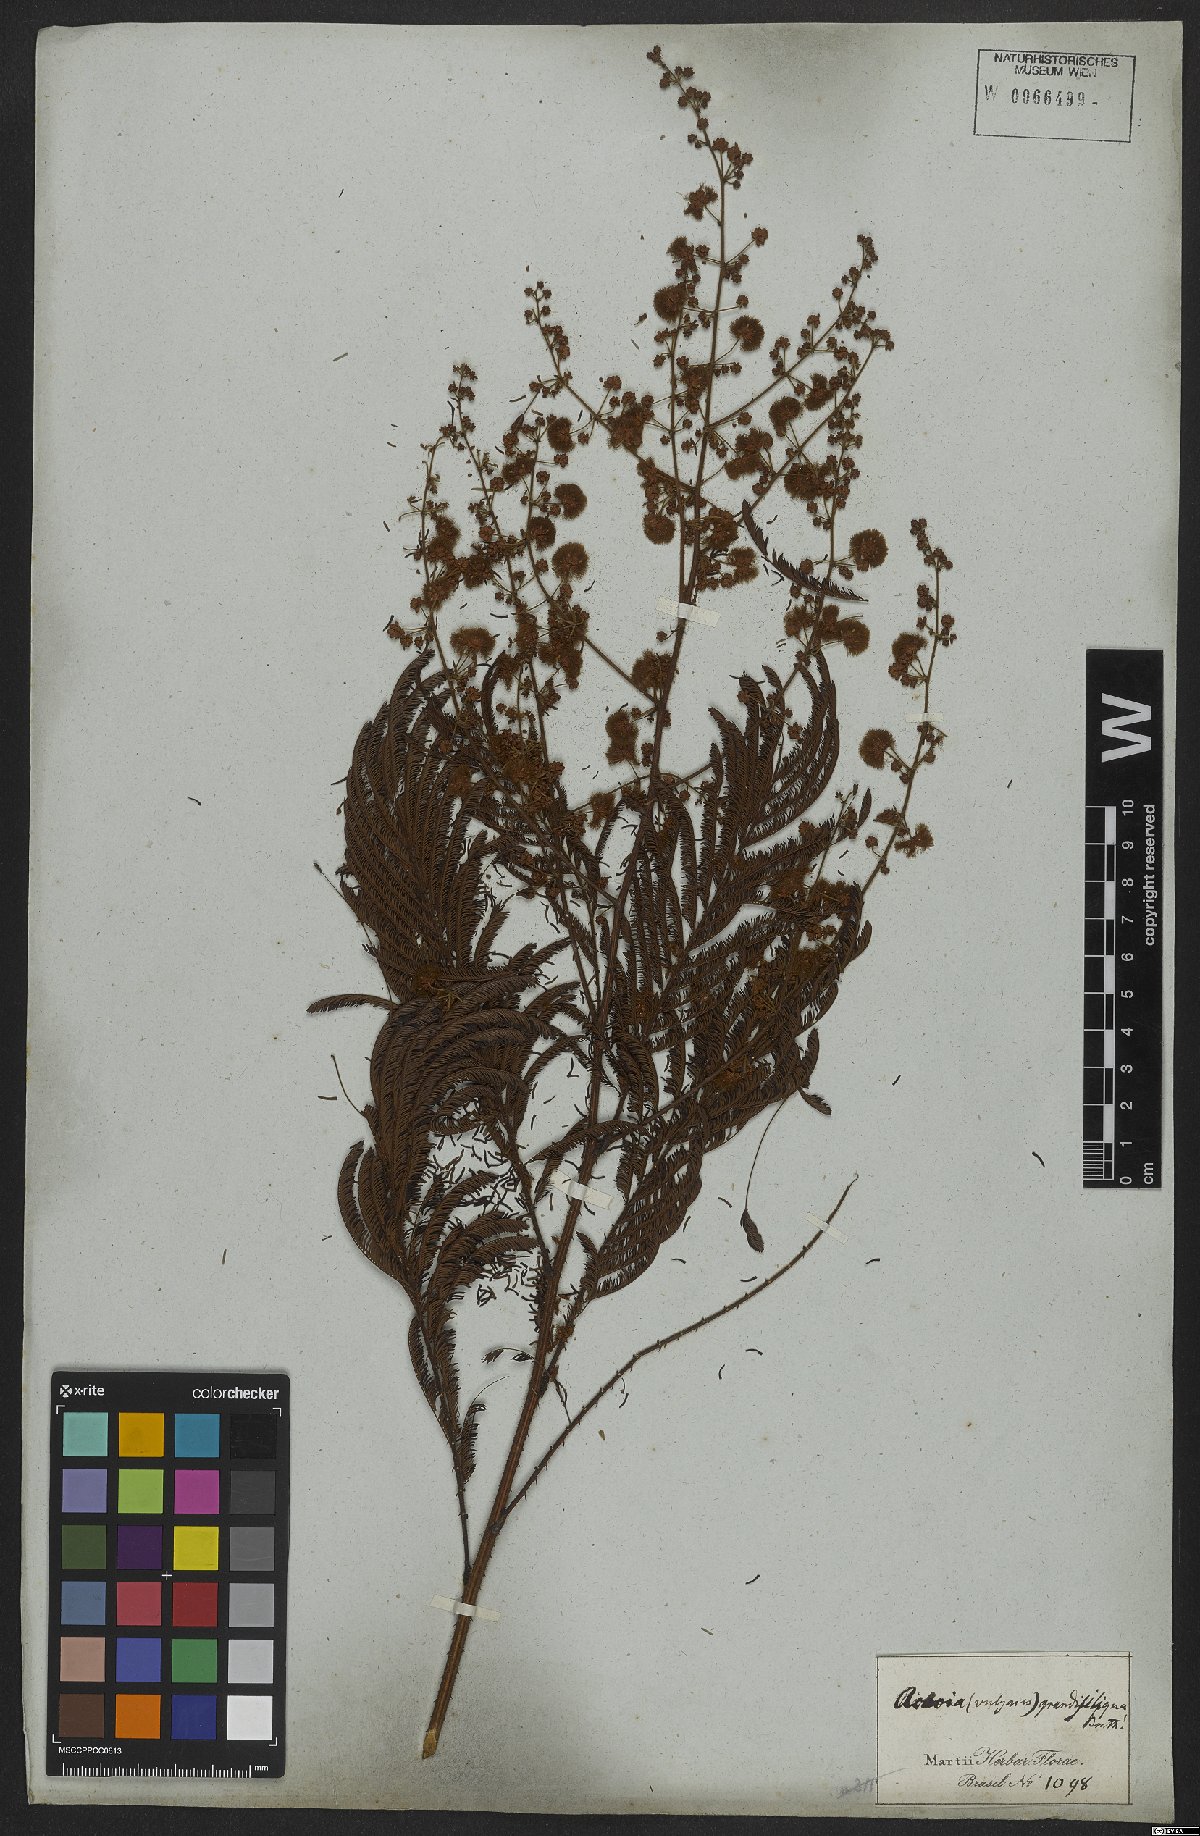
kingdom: Plantae
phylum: Tracheophyta
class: Magnoliopsida
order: Fabales
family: Fabaceae
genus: Senegalia
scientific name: Senegalia grandisiliqua
